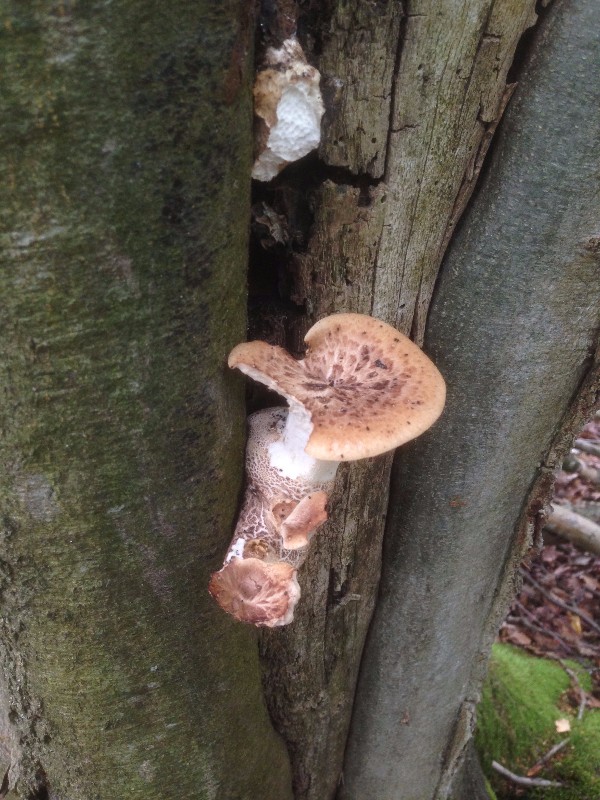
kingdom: Fungi
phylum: Basidiomycota
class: Agaricomycetes
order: Polyporales
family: Polyporaceae
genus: Cerioporus
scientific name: Cerioporus squamosus
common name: skællet stilkporesvamp
